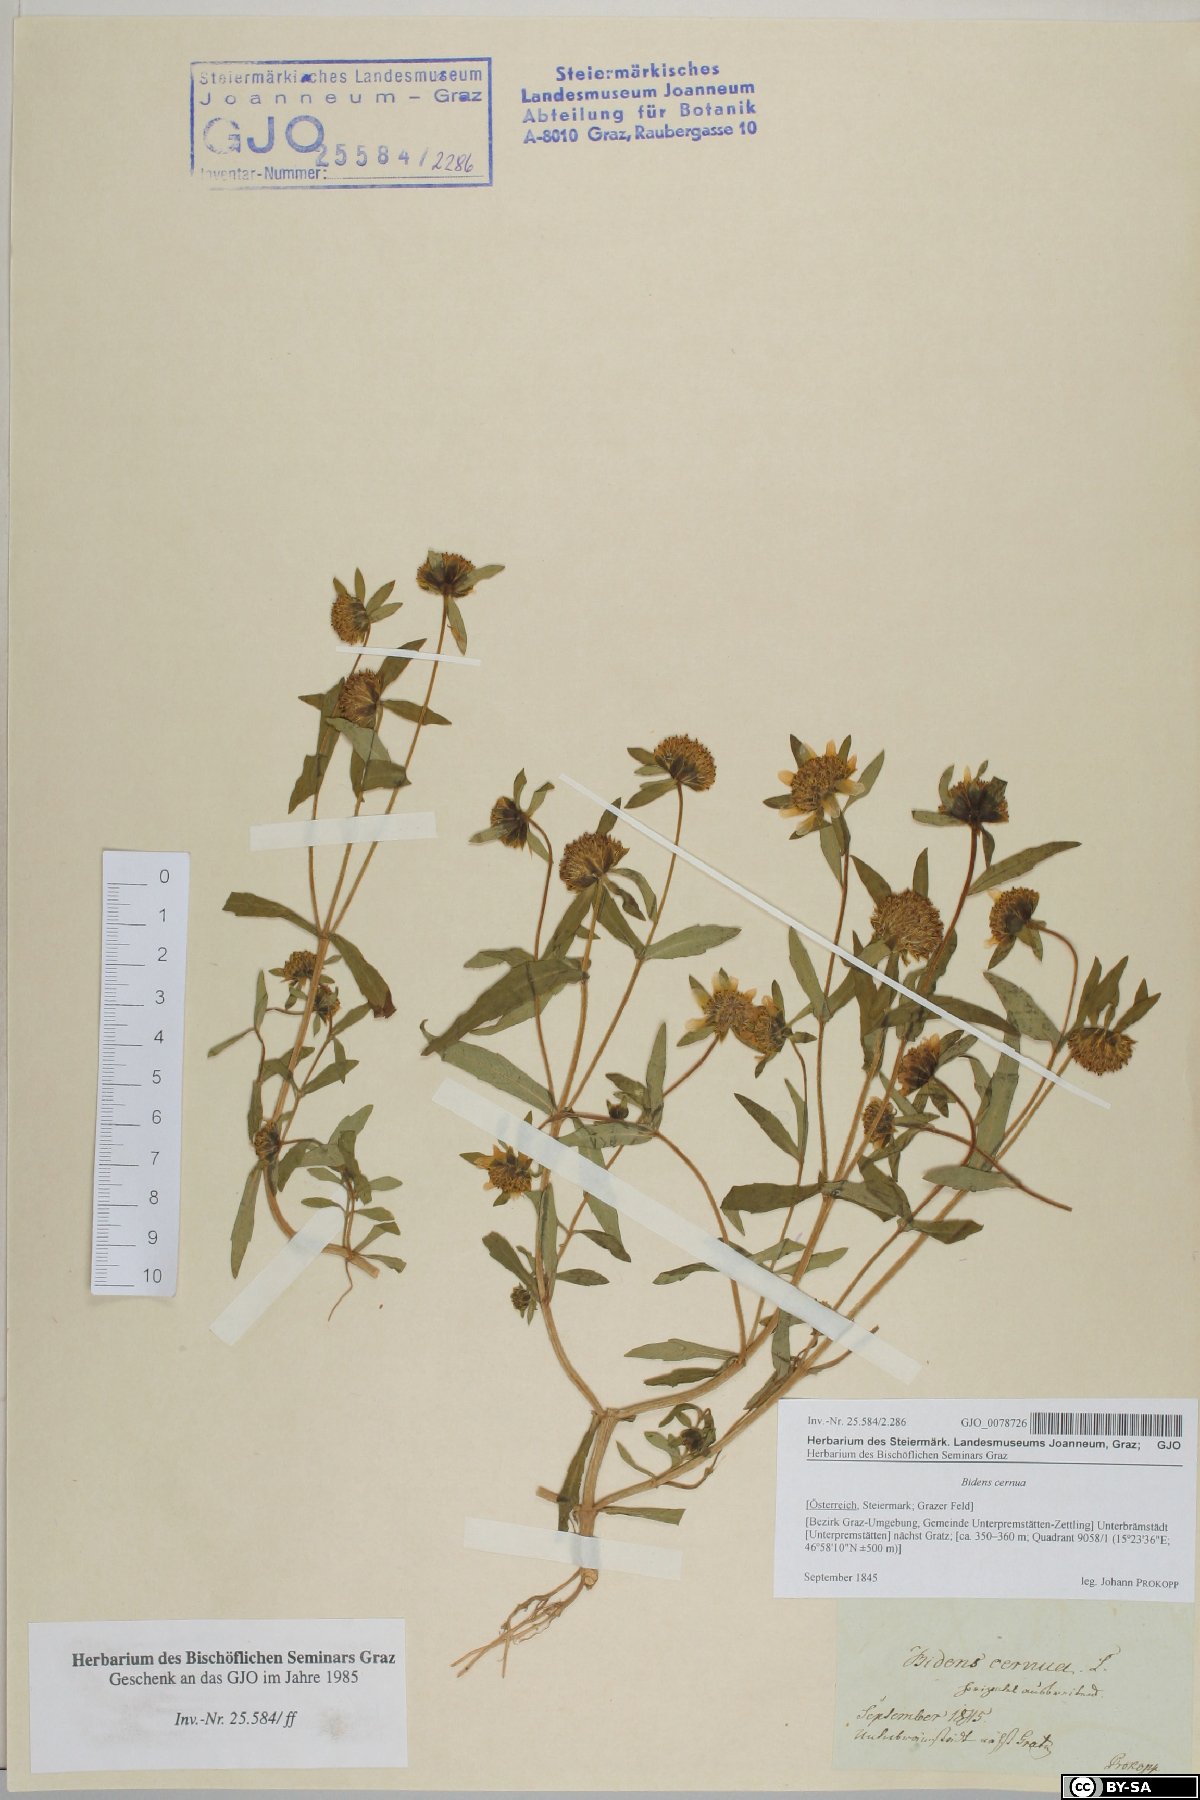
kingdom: Plantae
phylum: Tracheophyta
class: Magnoliopsida
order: Asterales
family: Asteraceae
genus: Bidens
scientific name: Bidens cernua
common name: Nodding bur-marigold
